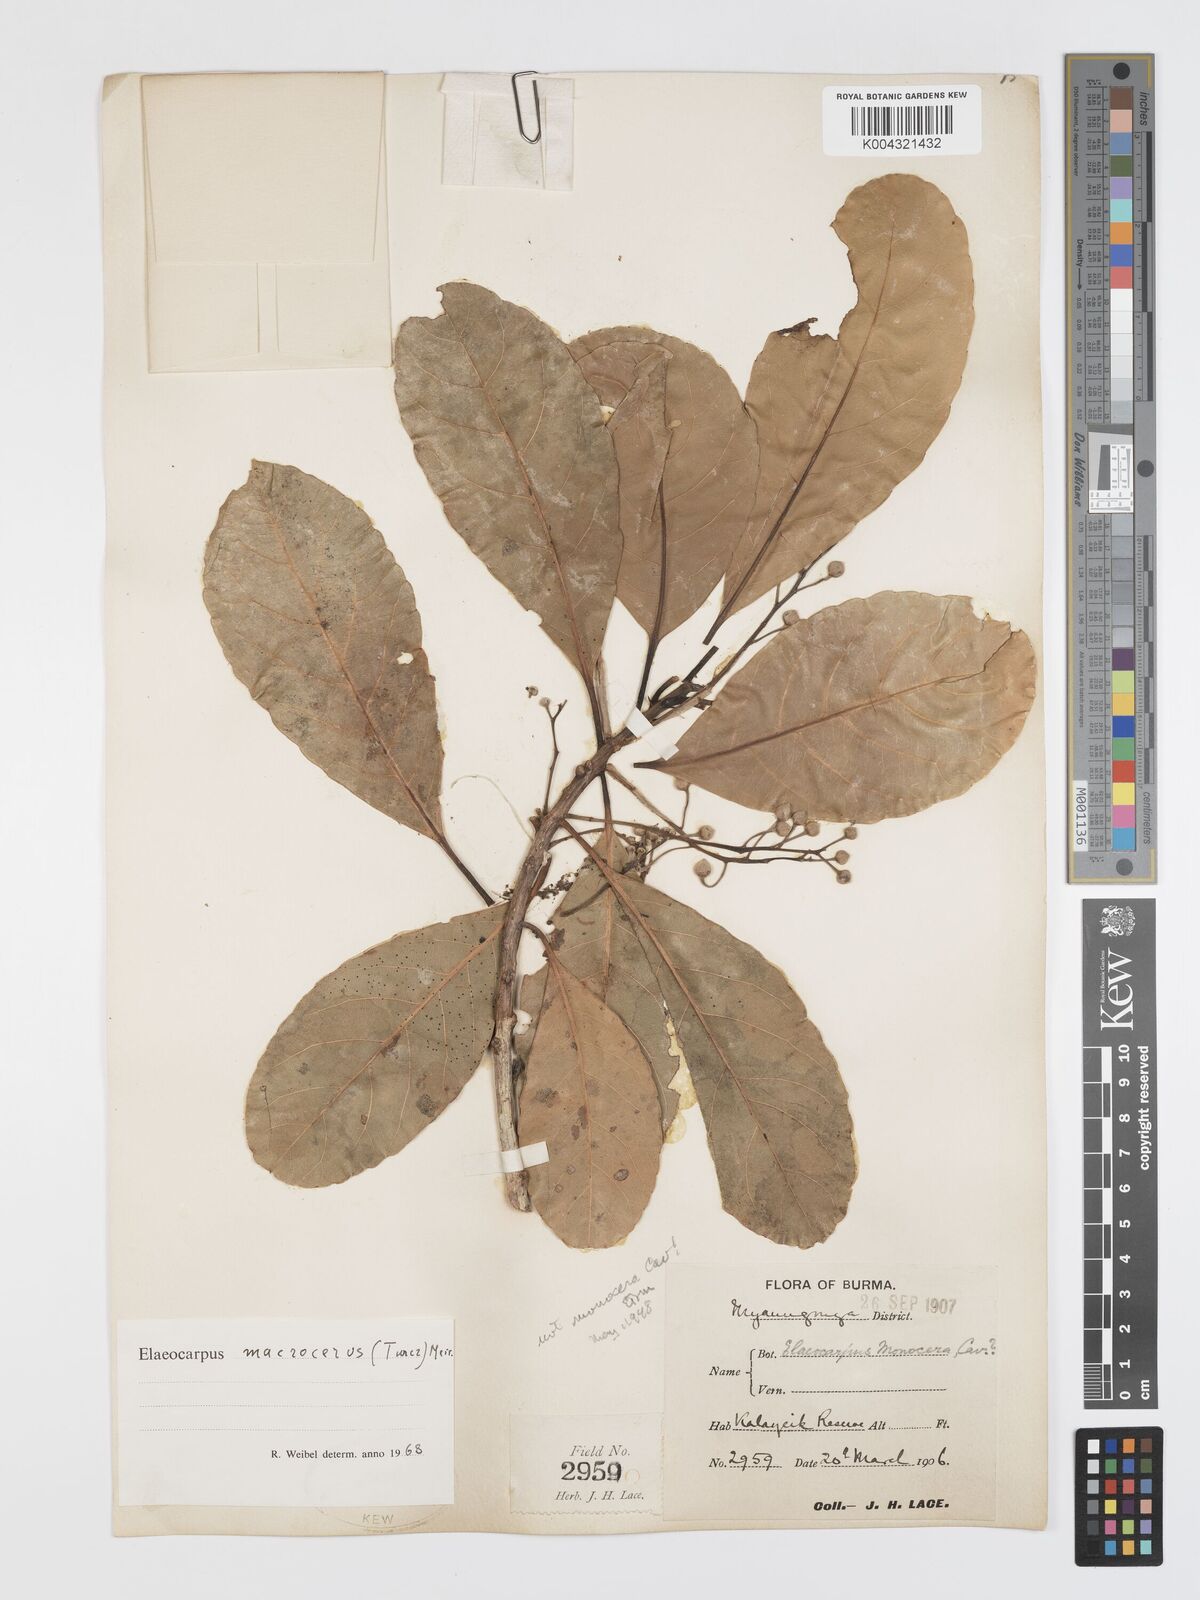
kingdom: Plantae
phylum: Tracheophyta
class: Magnoliopsida
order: Oxalidales
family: Elaeocarpaceae
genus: Elaeocarpus
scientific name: Elaeocarpus macrocerus
